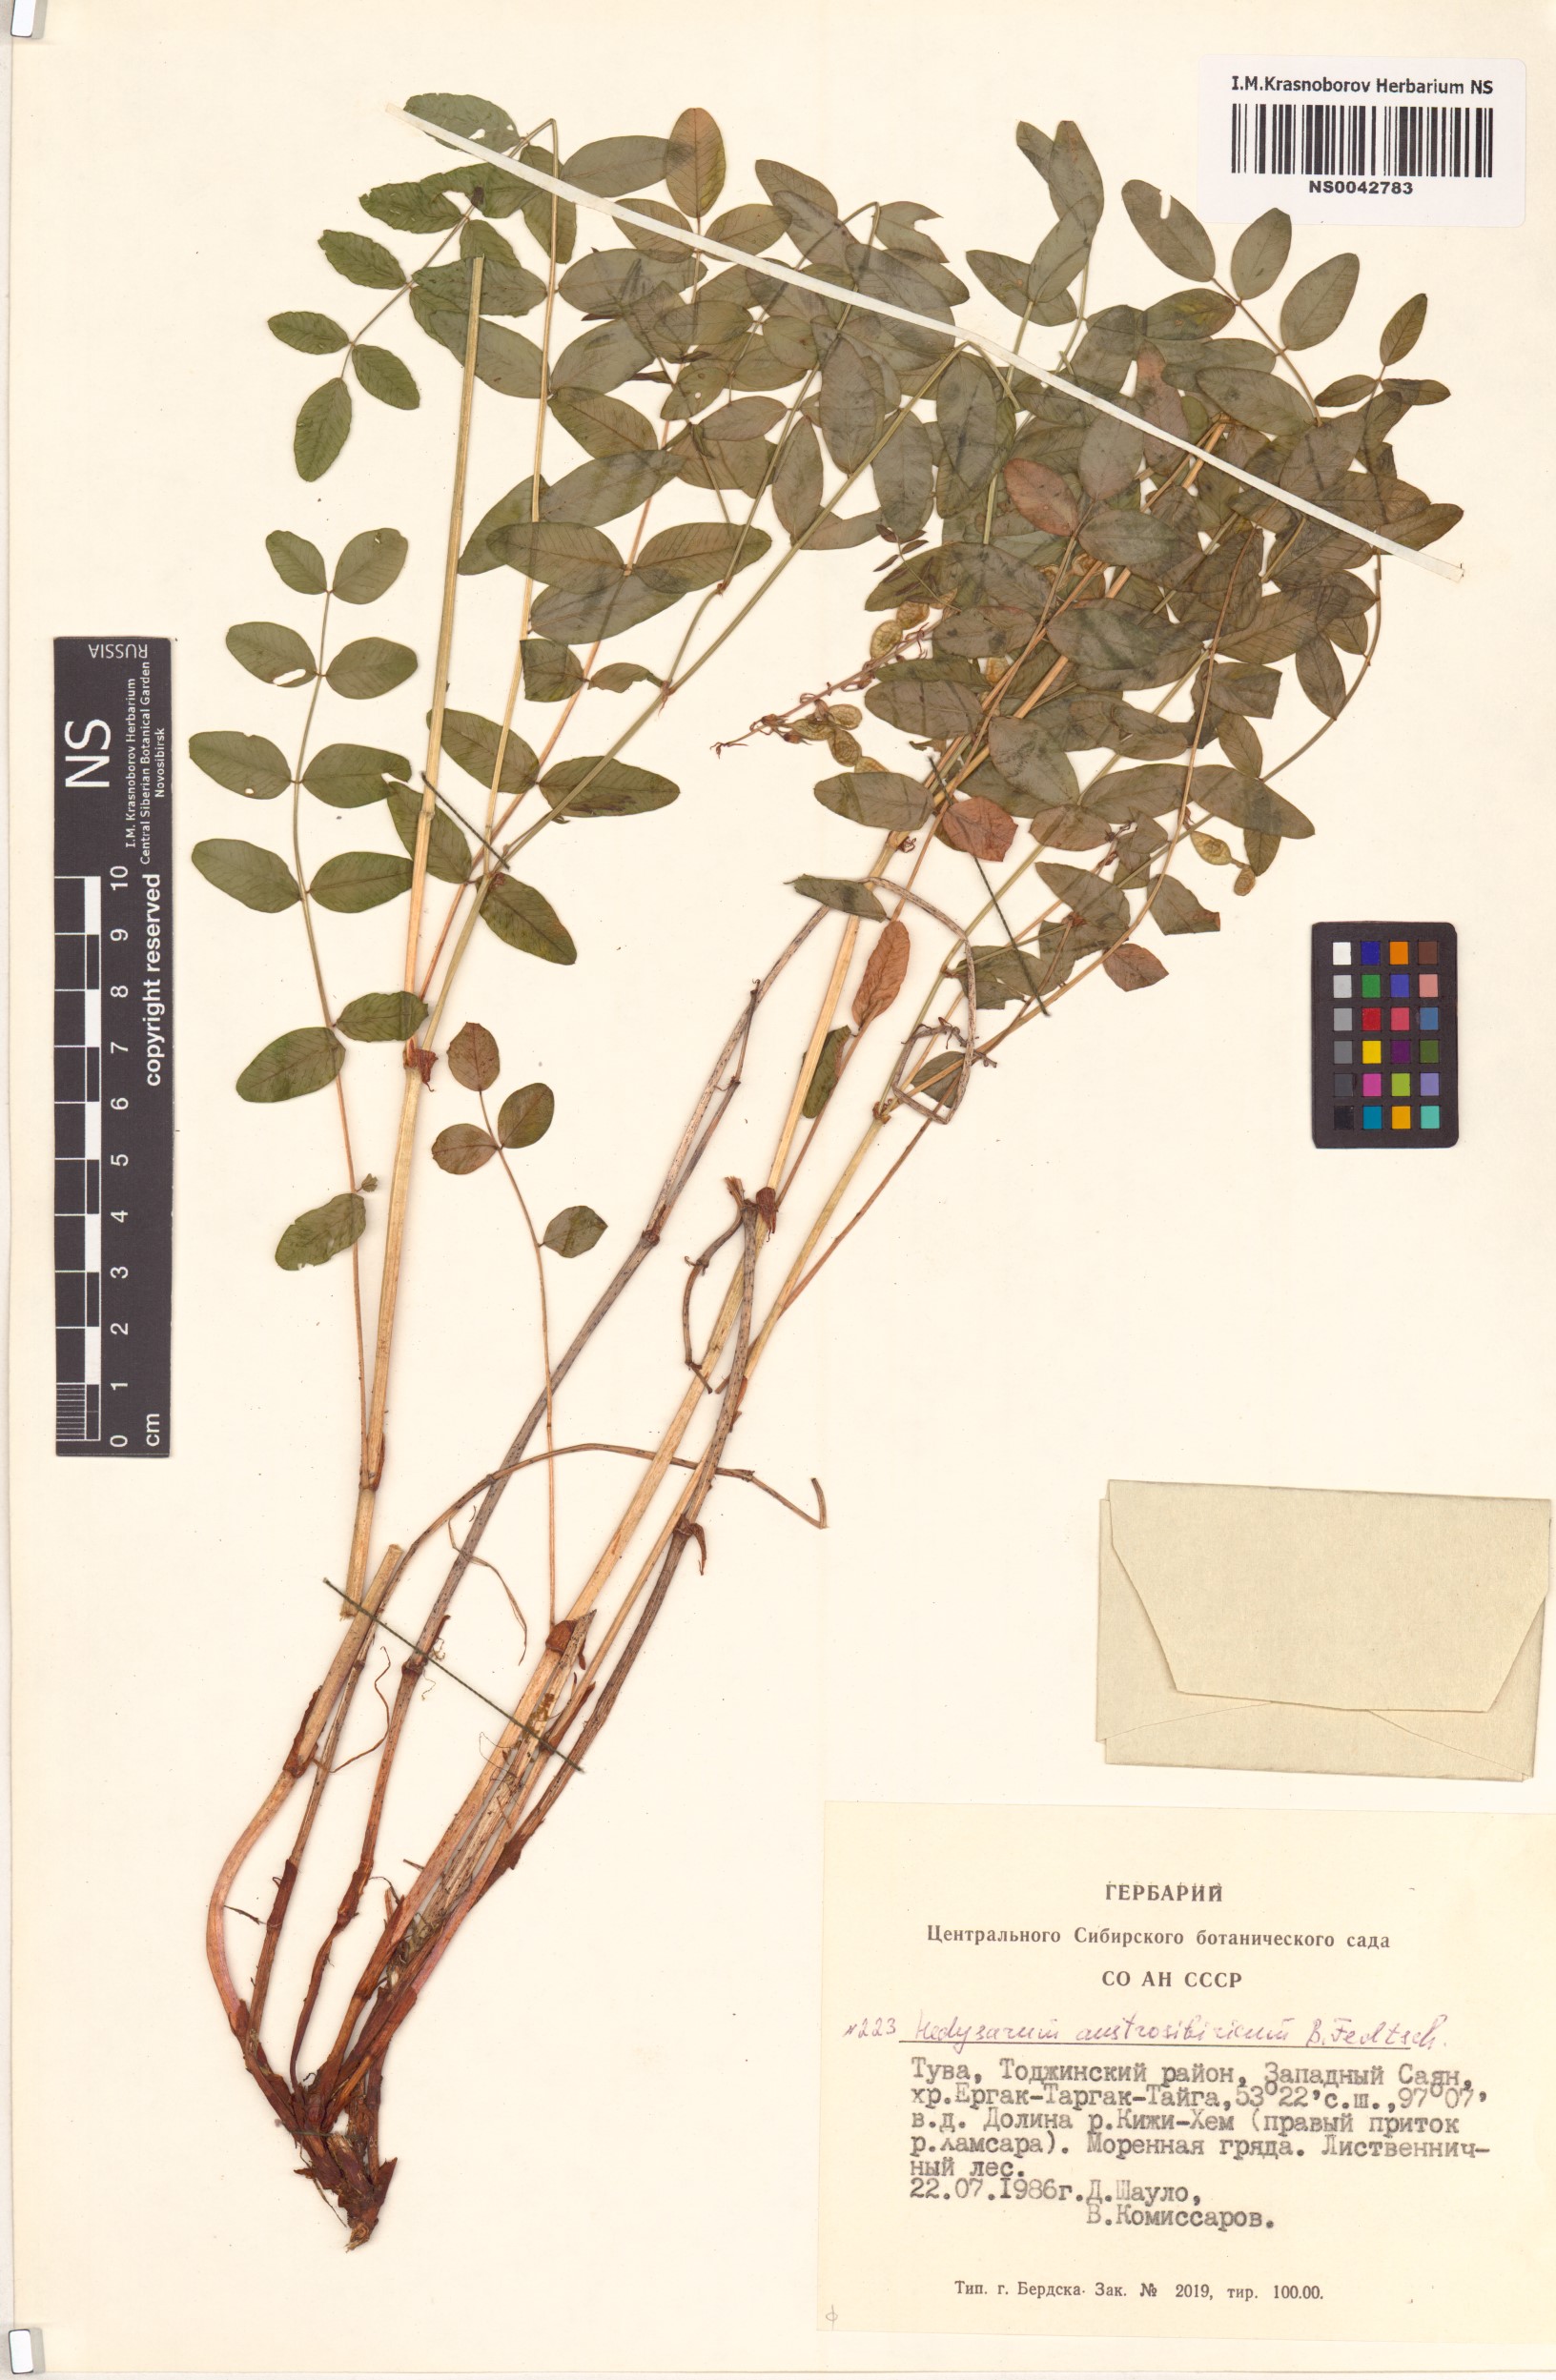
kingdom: Plantae
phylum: Tracheophyta
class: Magnoliopsida
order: Fabales
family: Fabaceae
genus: Hedysarum
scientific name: Hedysarum neglectum
